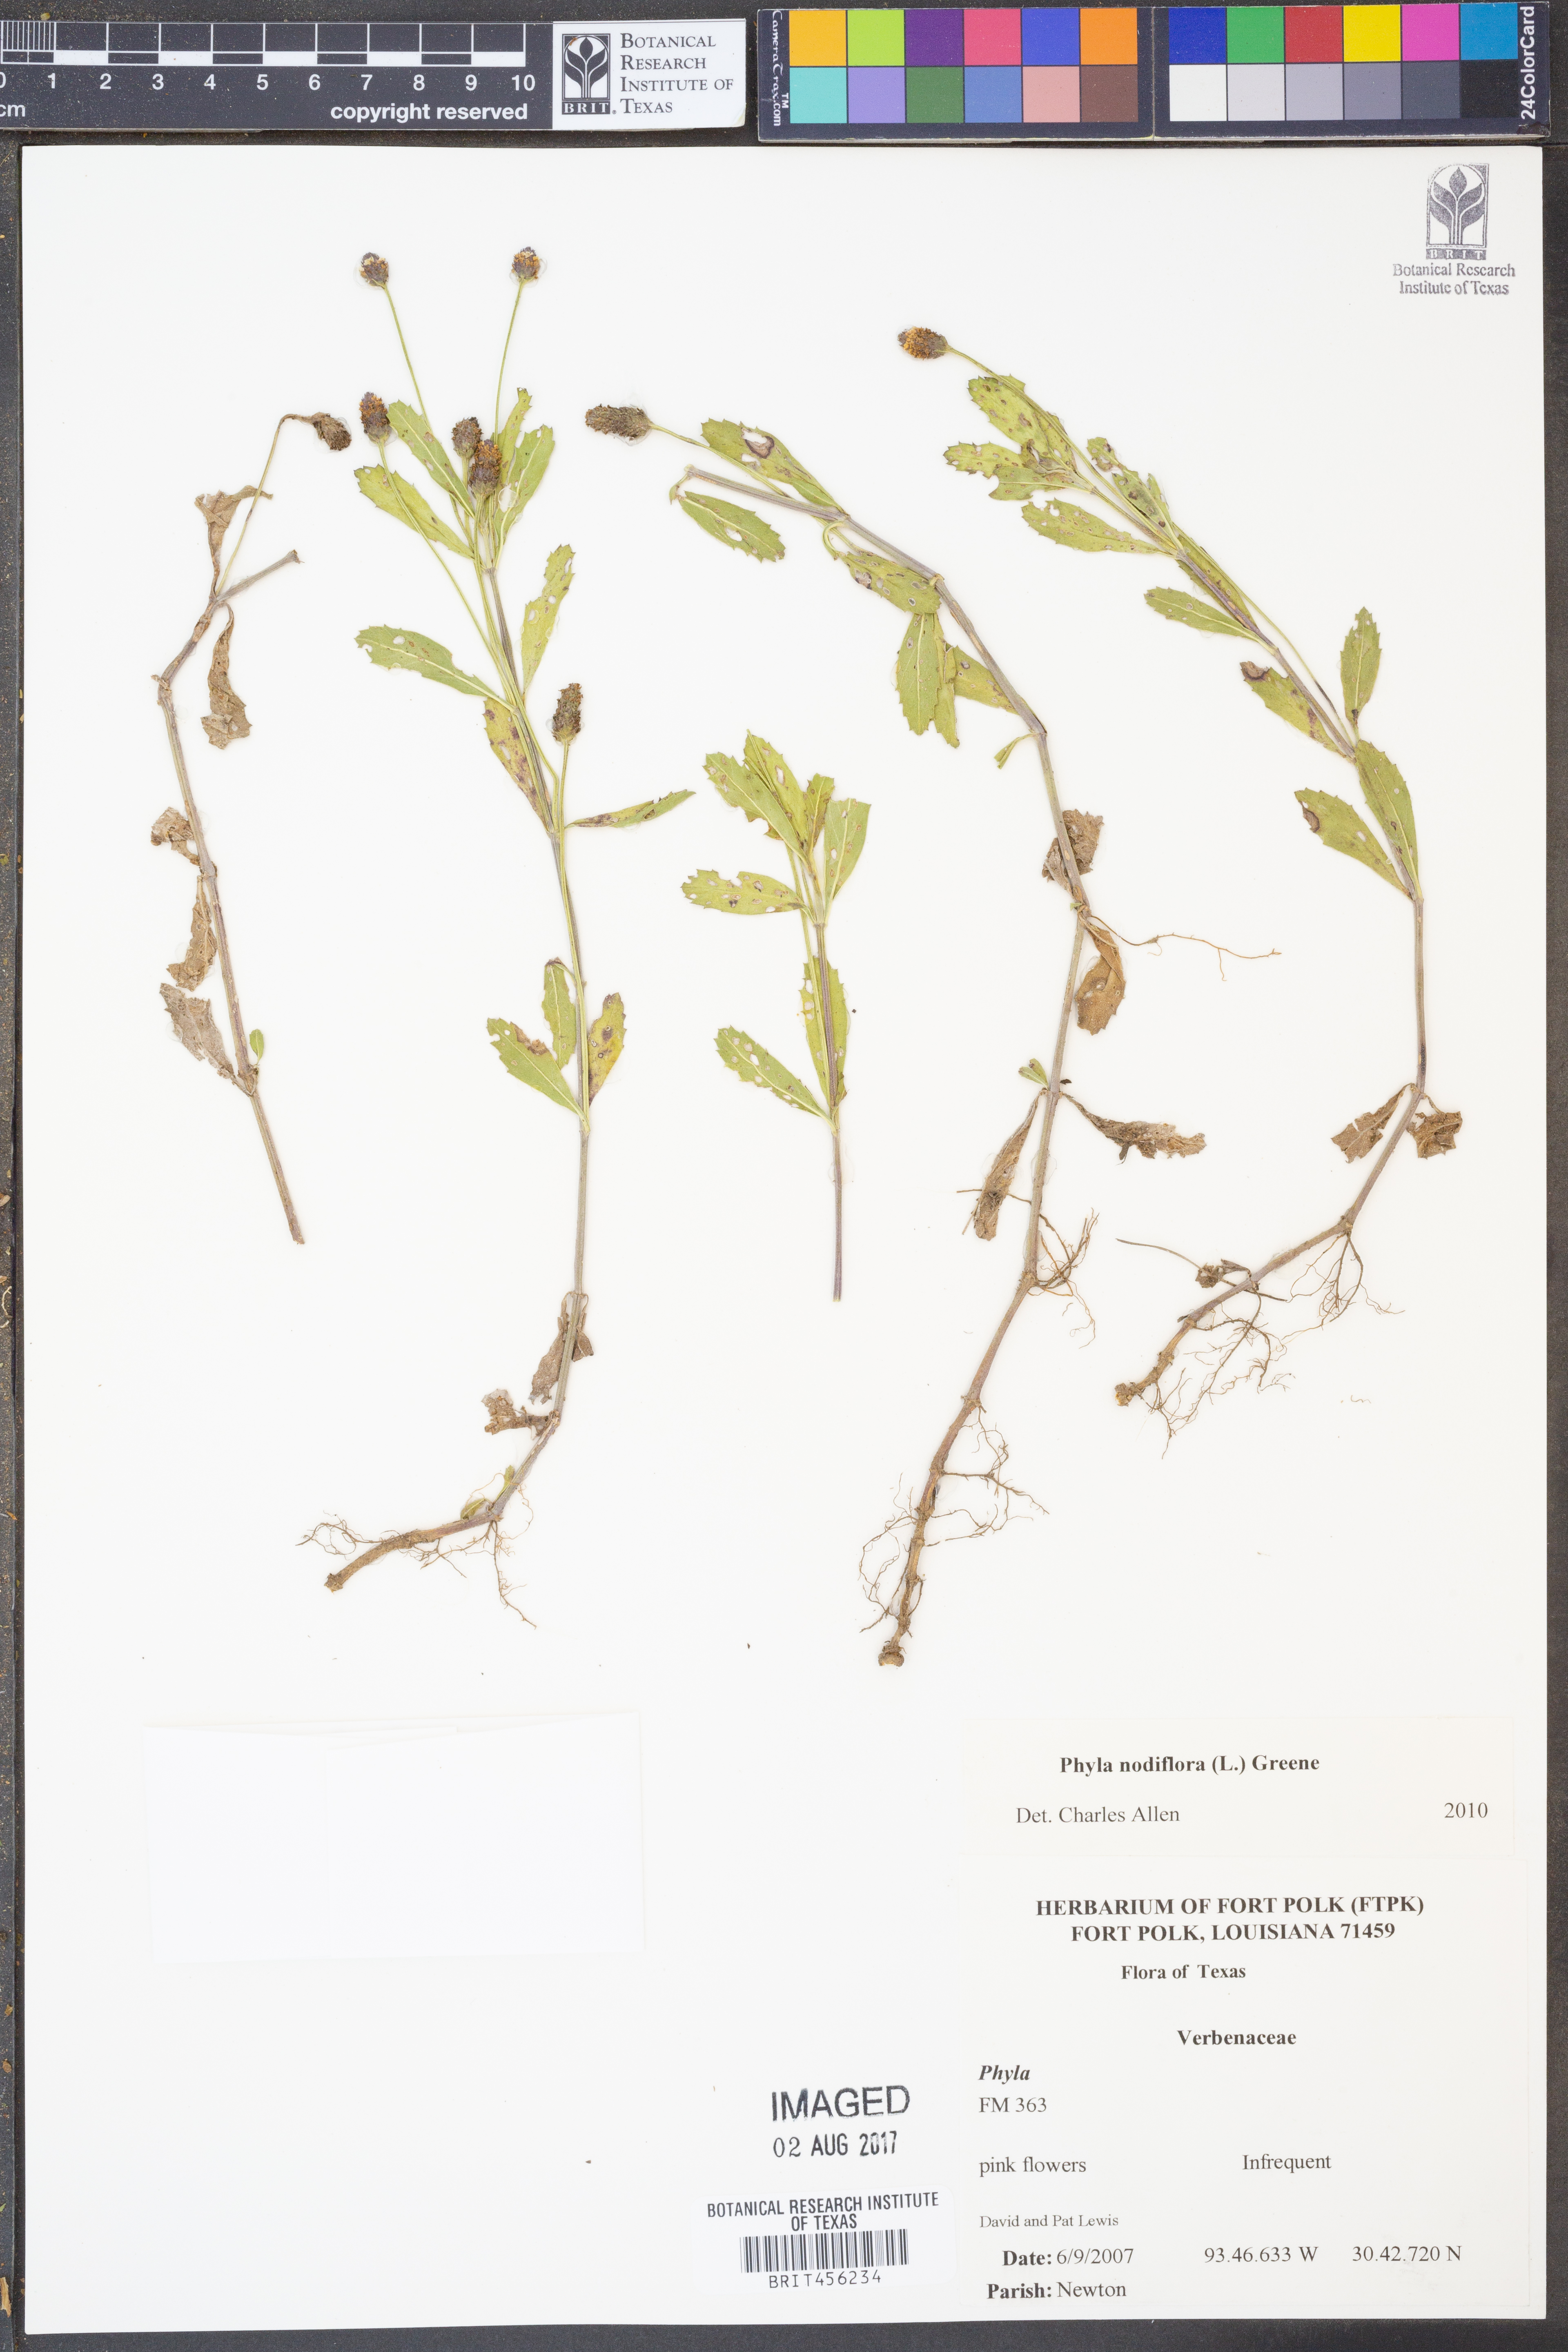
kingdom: Plantae
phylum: Tracheophyta
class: Magnoliopsida
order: Lamiales
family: Verbenaceae
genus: Phyla
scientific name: Phyla nodiflora
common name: Frogfruit
